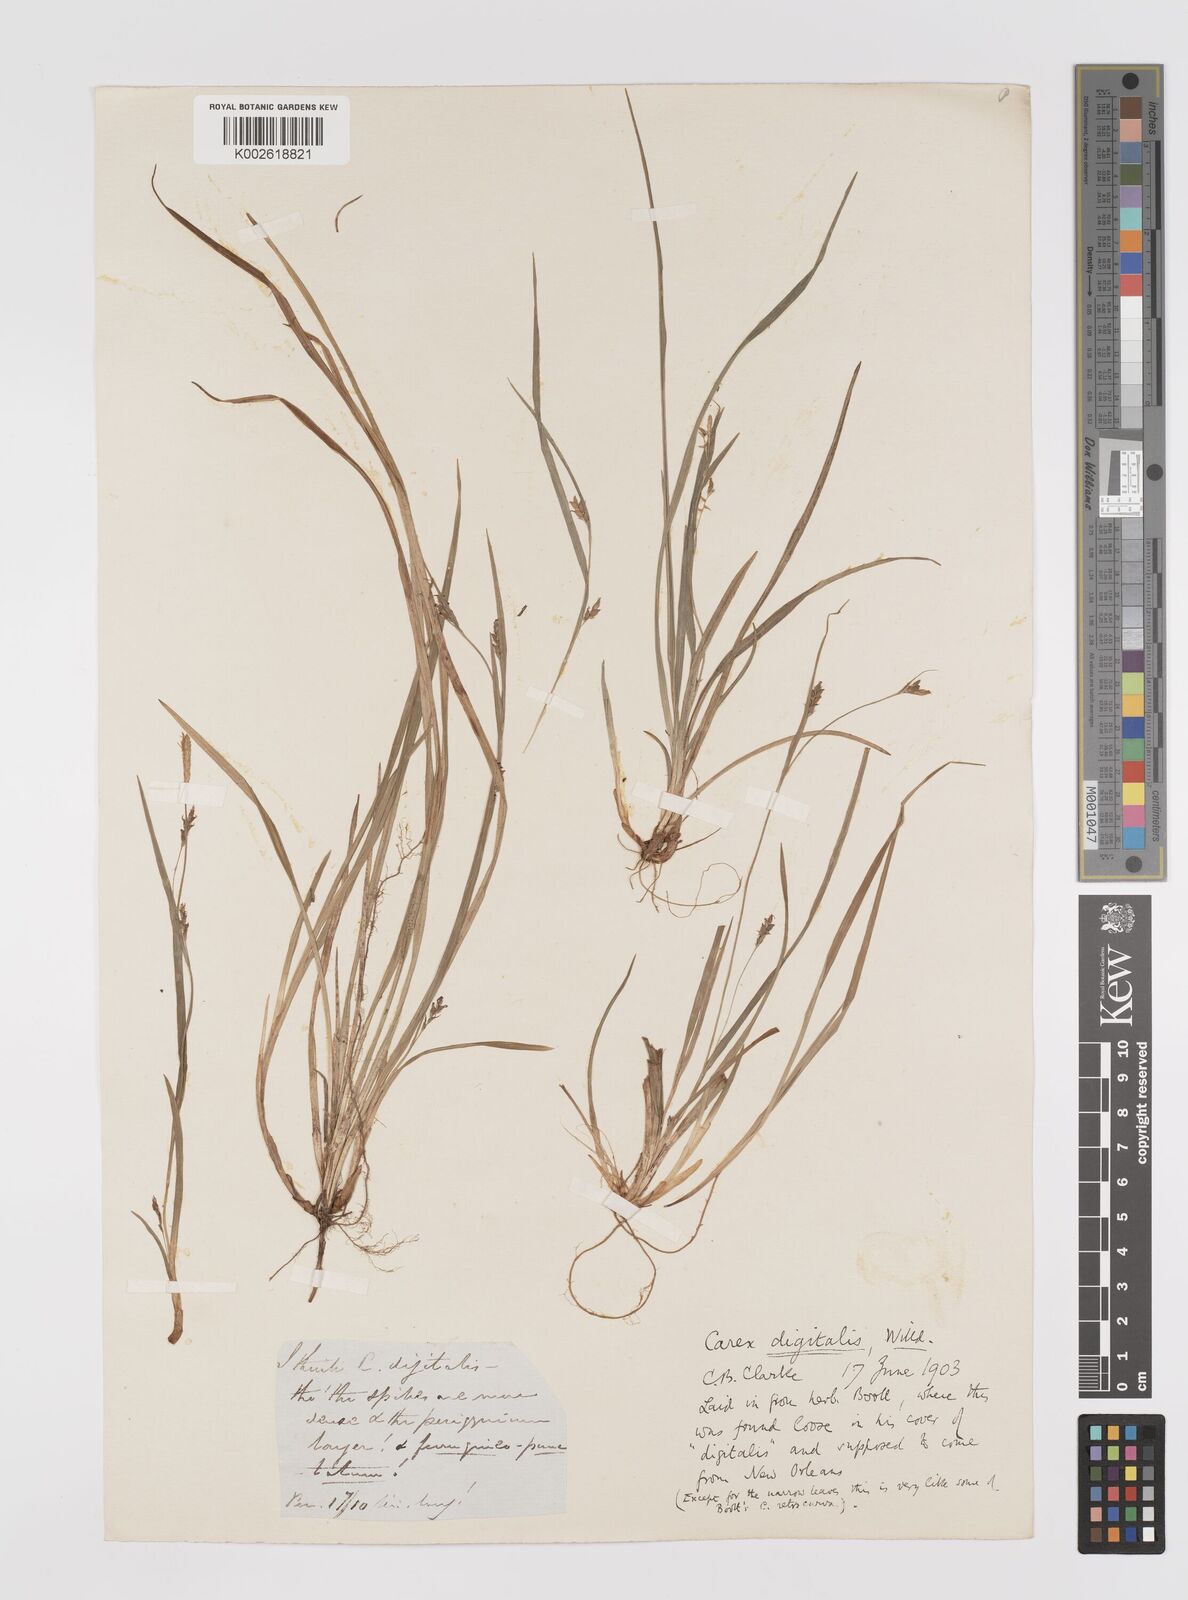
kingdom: Plantae
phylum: Tracheophyta
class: Liliopsida
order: Poales
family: Cyperaceae
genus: Carex
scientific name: Carex digitalis
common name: Slender wood sedge
